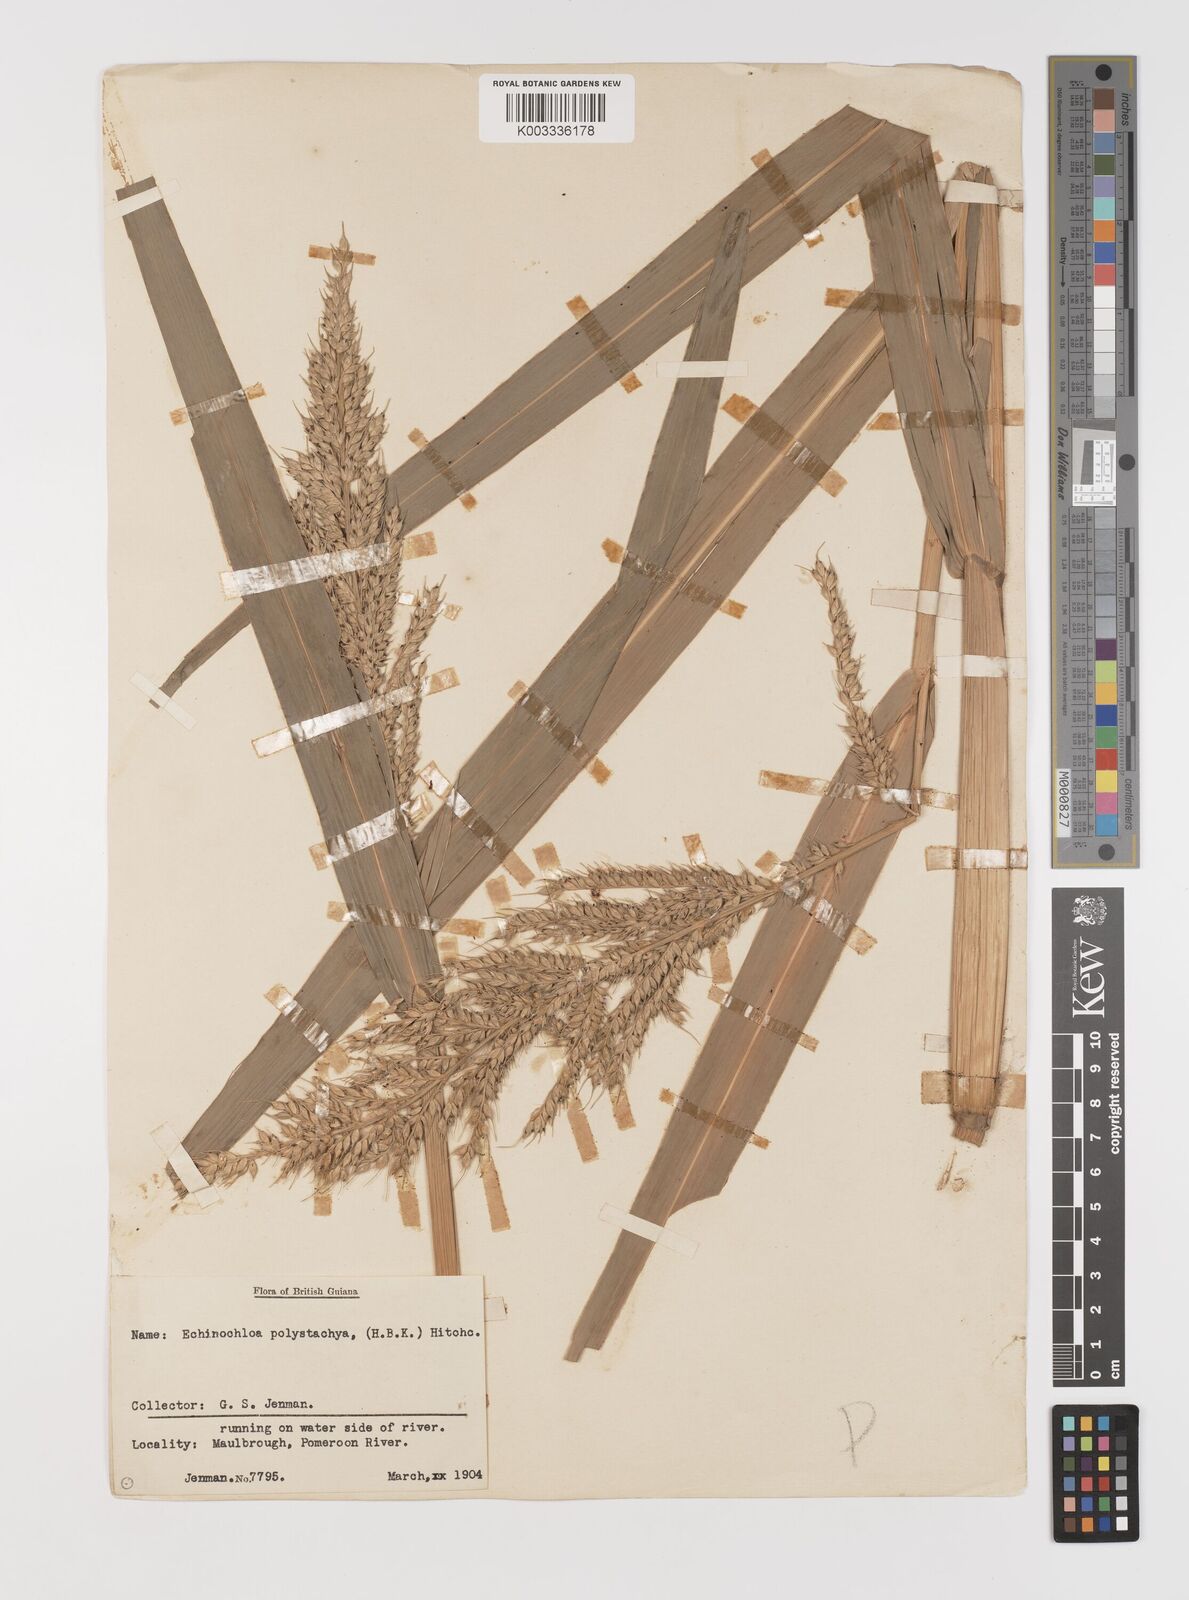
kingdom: Plantae
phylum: Tracheophyta
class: Liliopsida
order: Poales
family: Poaceae
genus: Pseudechinolaena
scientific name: Pseudechinolaena polystachya
